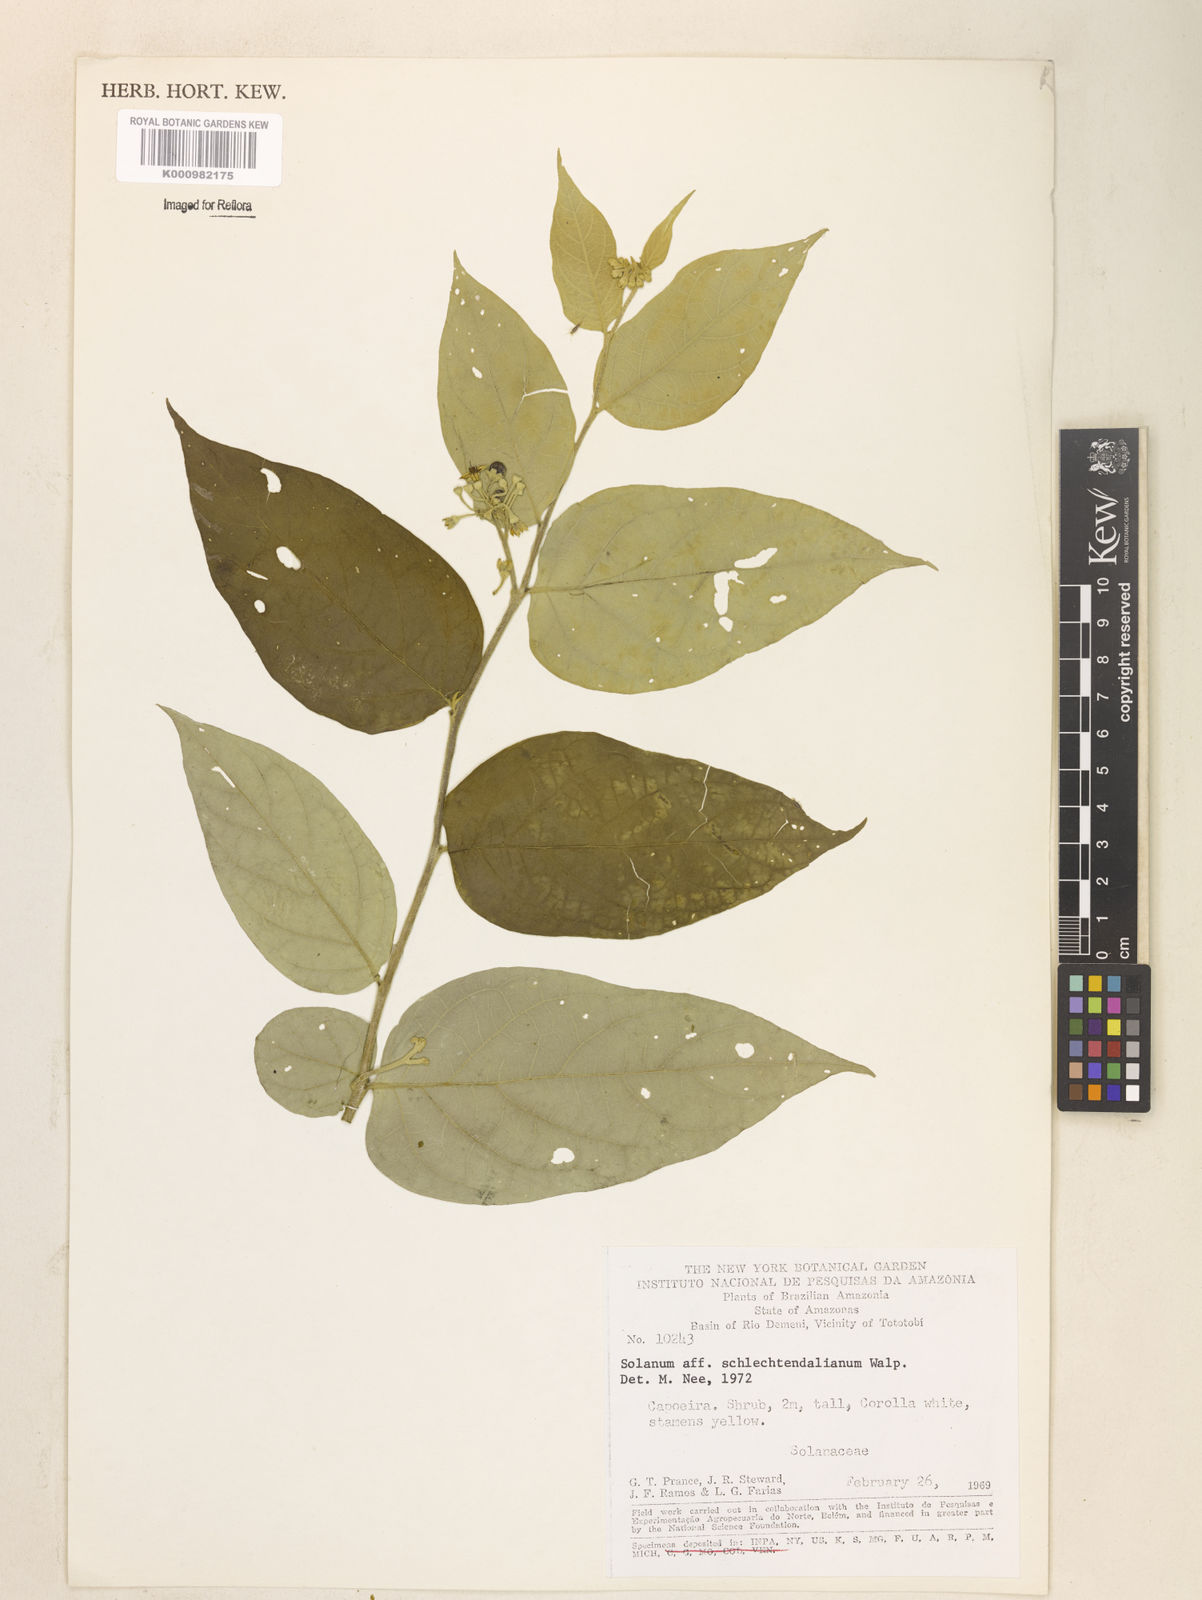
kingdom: Plantae
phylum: Tracheophyta
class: Magnoliopsida
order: Solanales
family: Solanaceae
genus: Solanum
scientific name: Solanum schlechtendalianum
